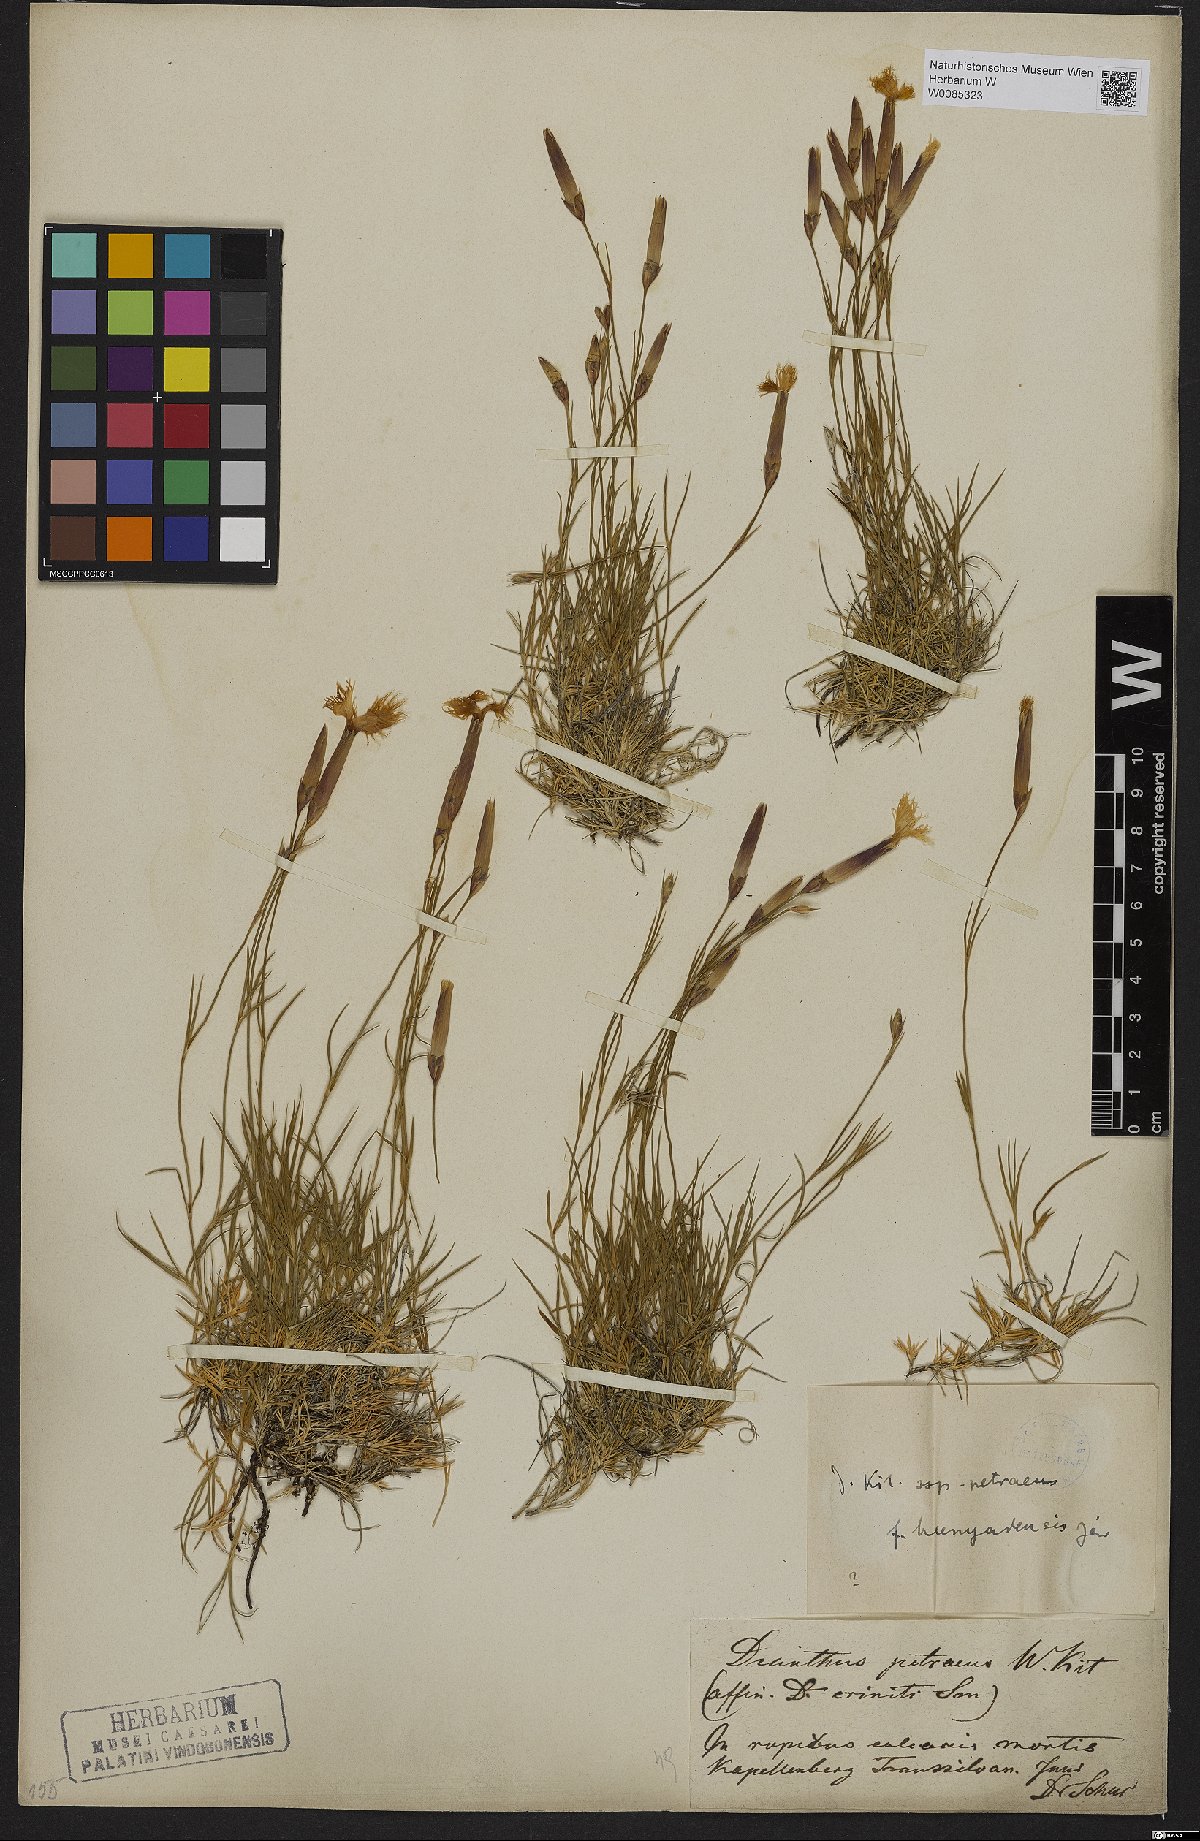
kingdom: Plantae
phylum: Tracheophyta
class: Magnoliopsida
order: Caryophyllales
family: Caryophyllaceae
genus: Dianthus
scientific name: Dianthus petraeus
